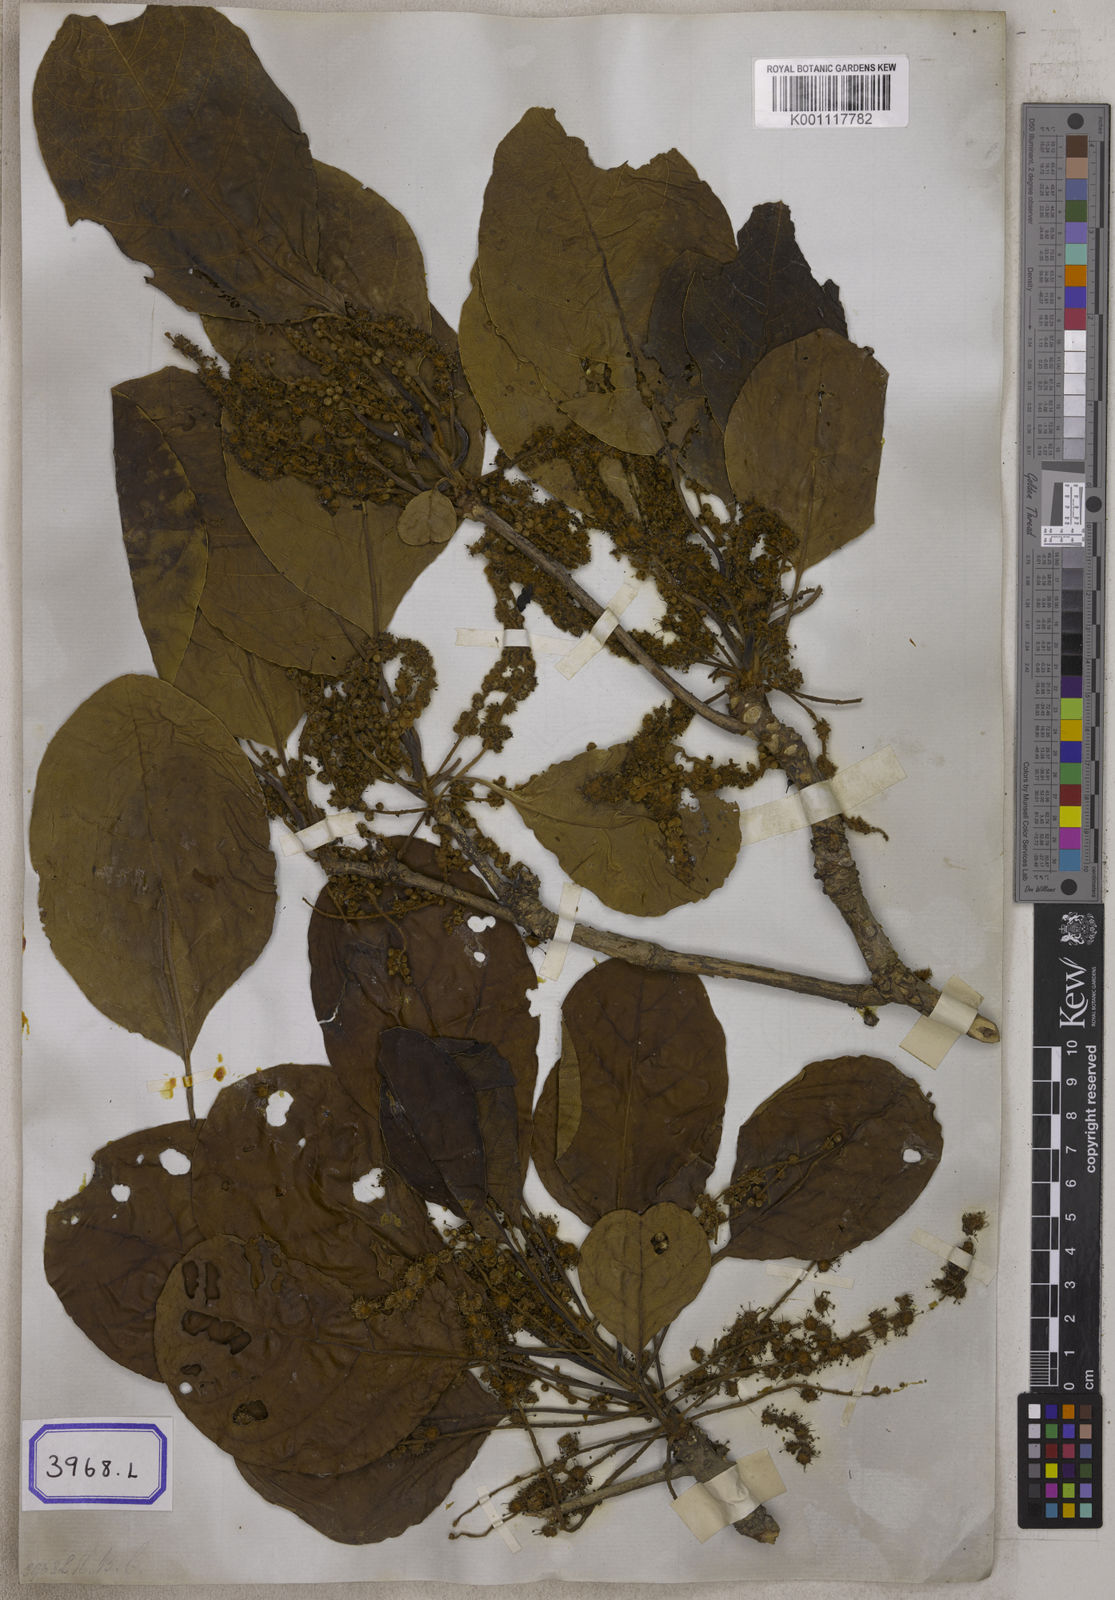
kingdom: Plantae
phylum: Tracheophyta
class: Magnoliopsida
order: Myrtales
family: Combretaceae
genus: Terminalia
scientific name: Terminalia bellirica
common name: Beleric myrobalan
